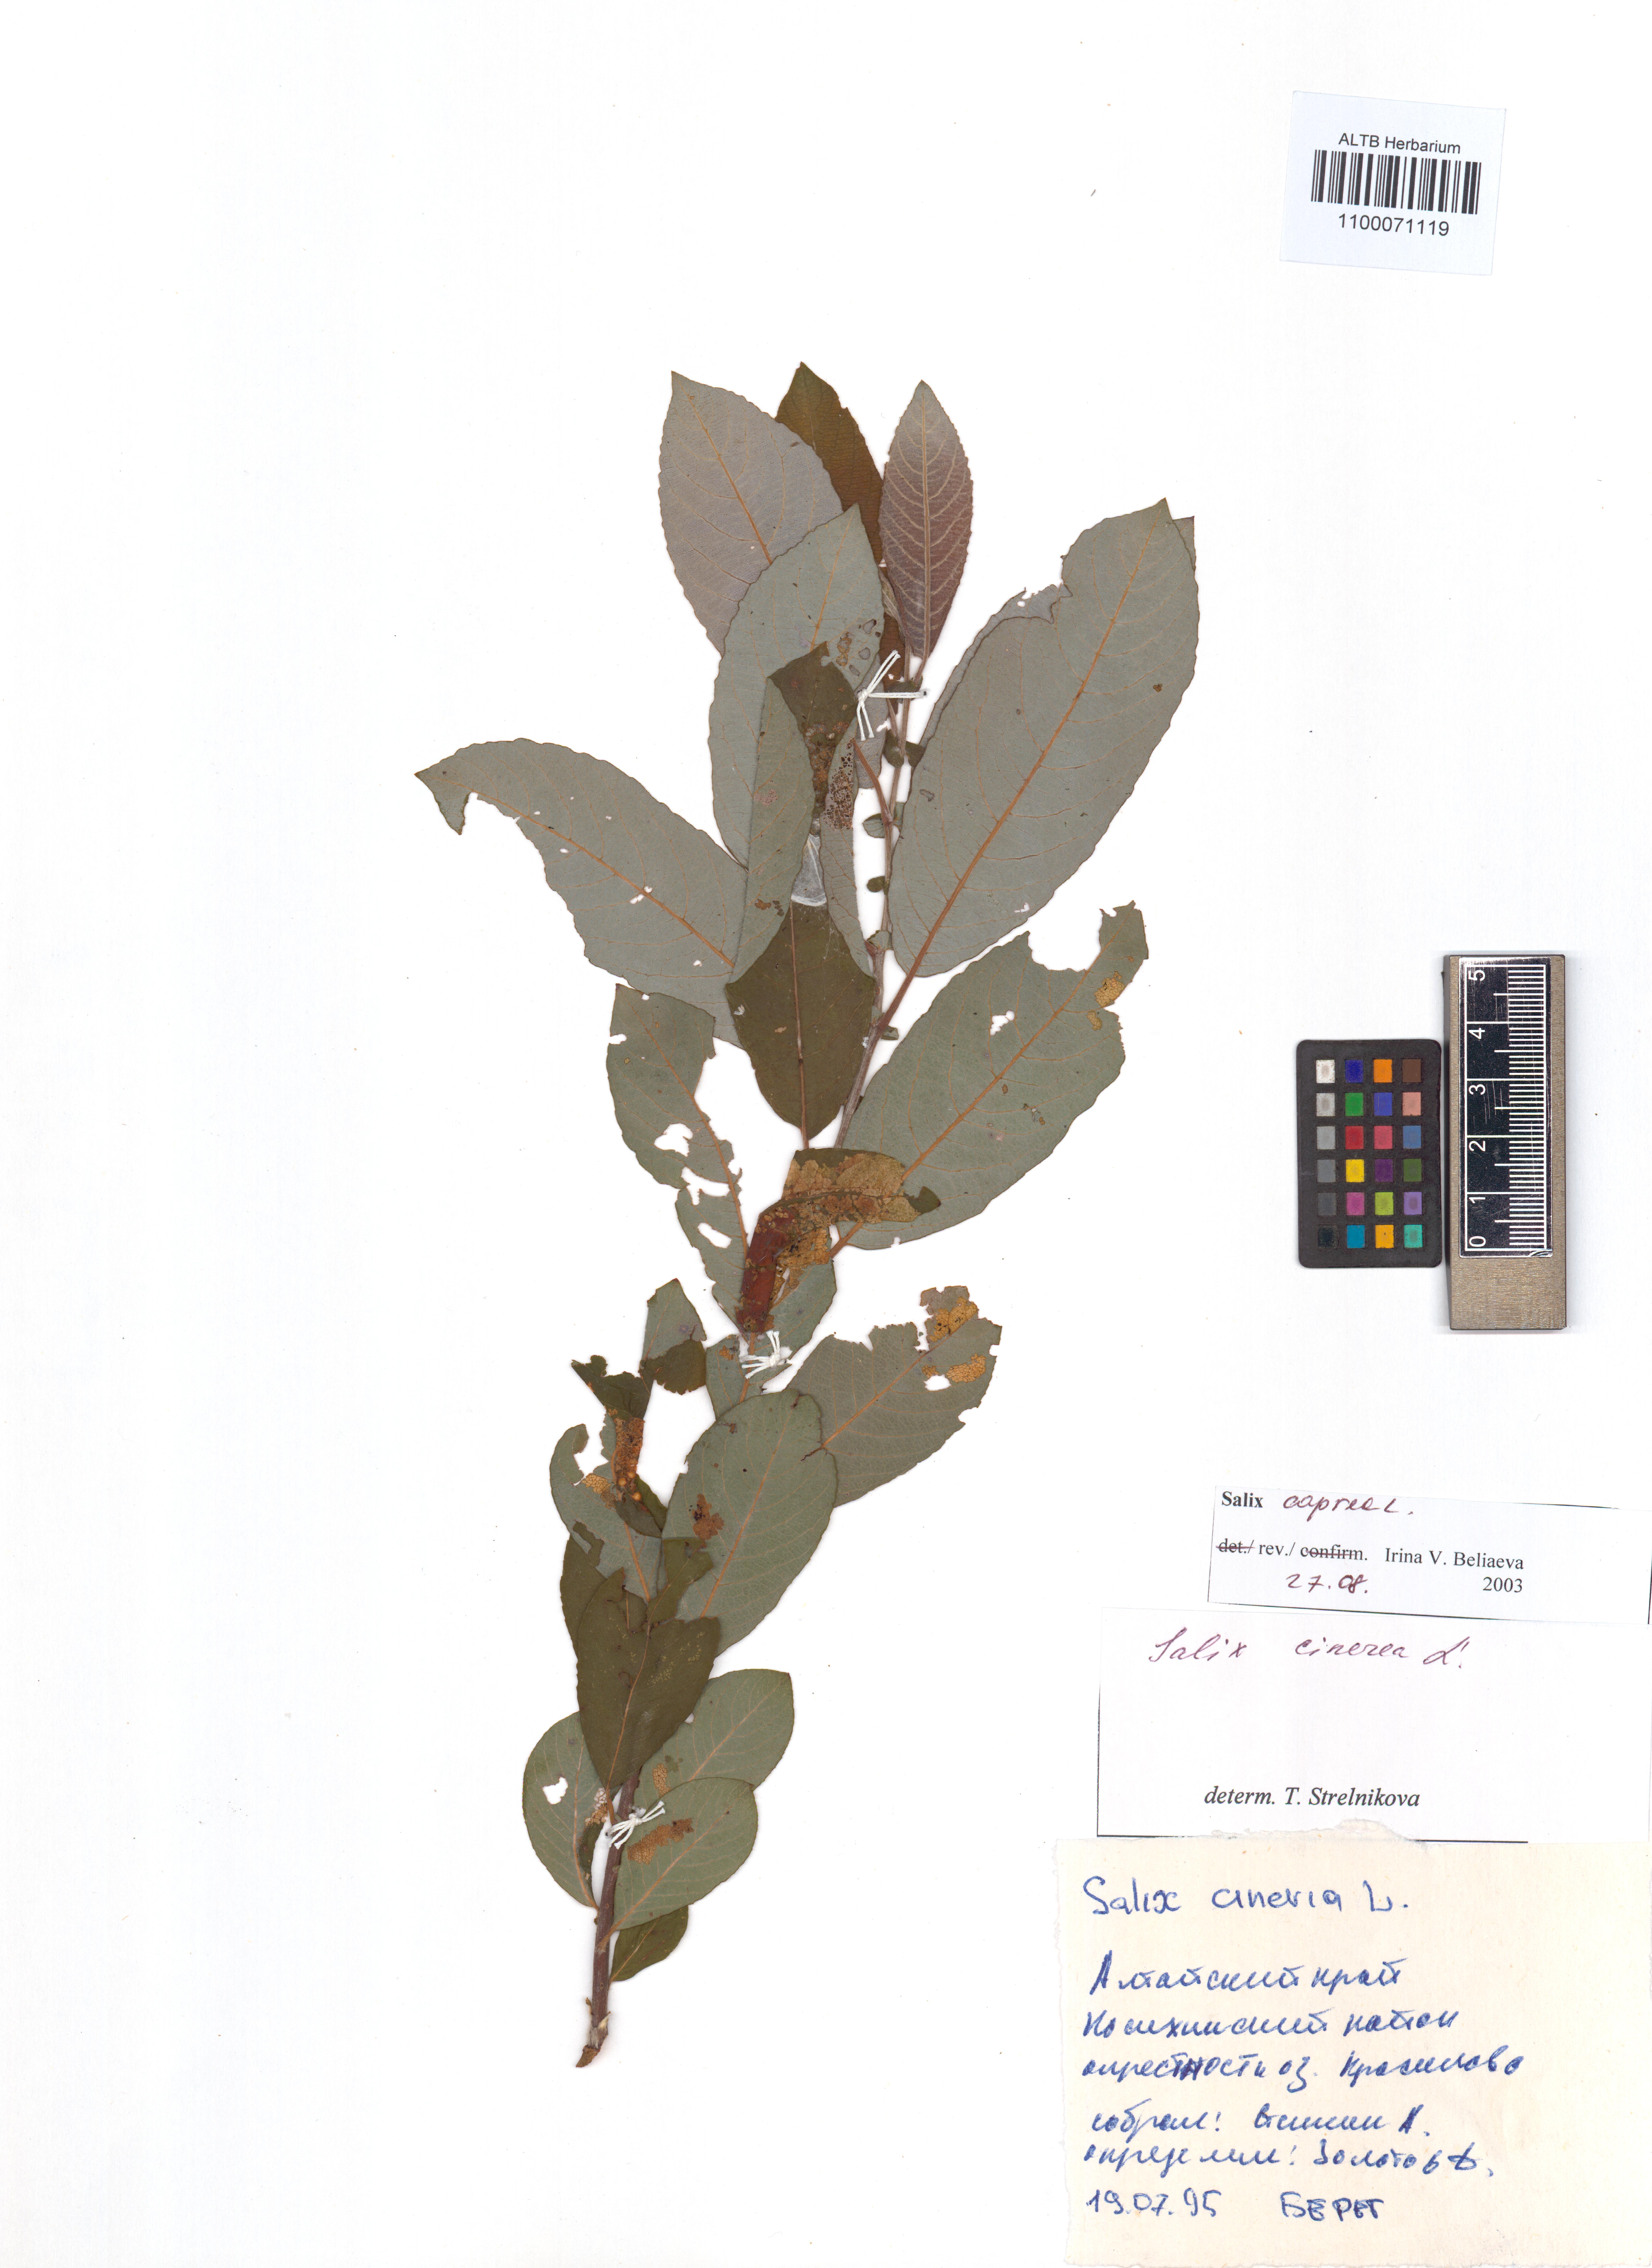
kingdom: Plantae
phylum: Tracheophyta
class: Magnoliopsida
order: Malpighiales
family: Salicaceae
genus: Salix
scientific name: Salix caprea
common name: Goat willow
